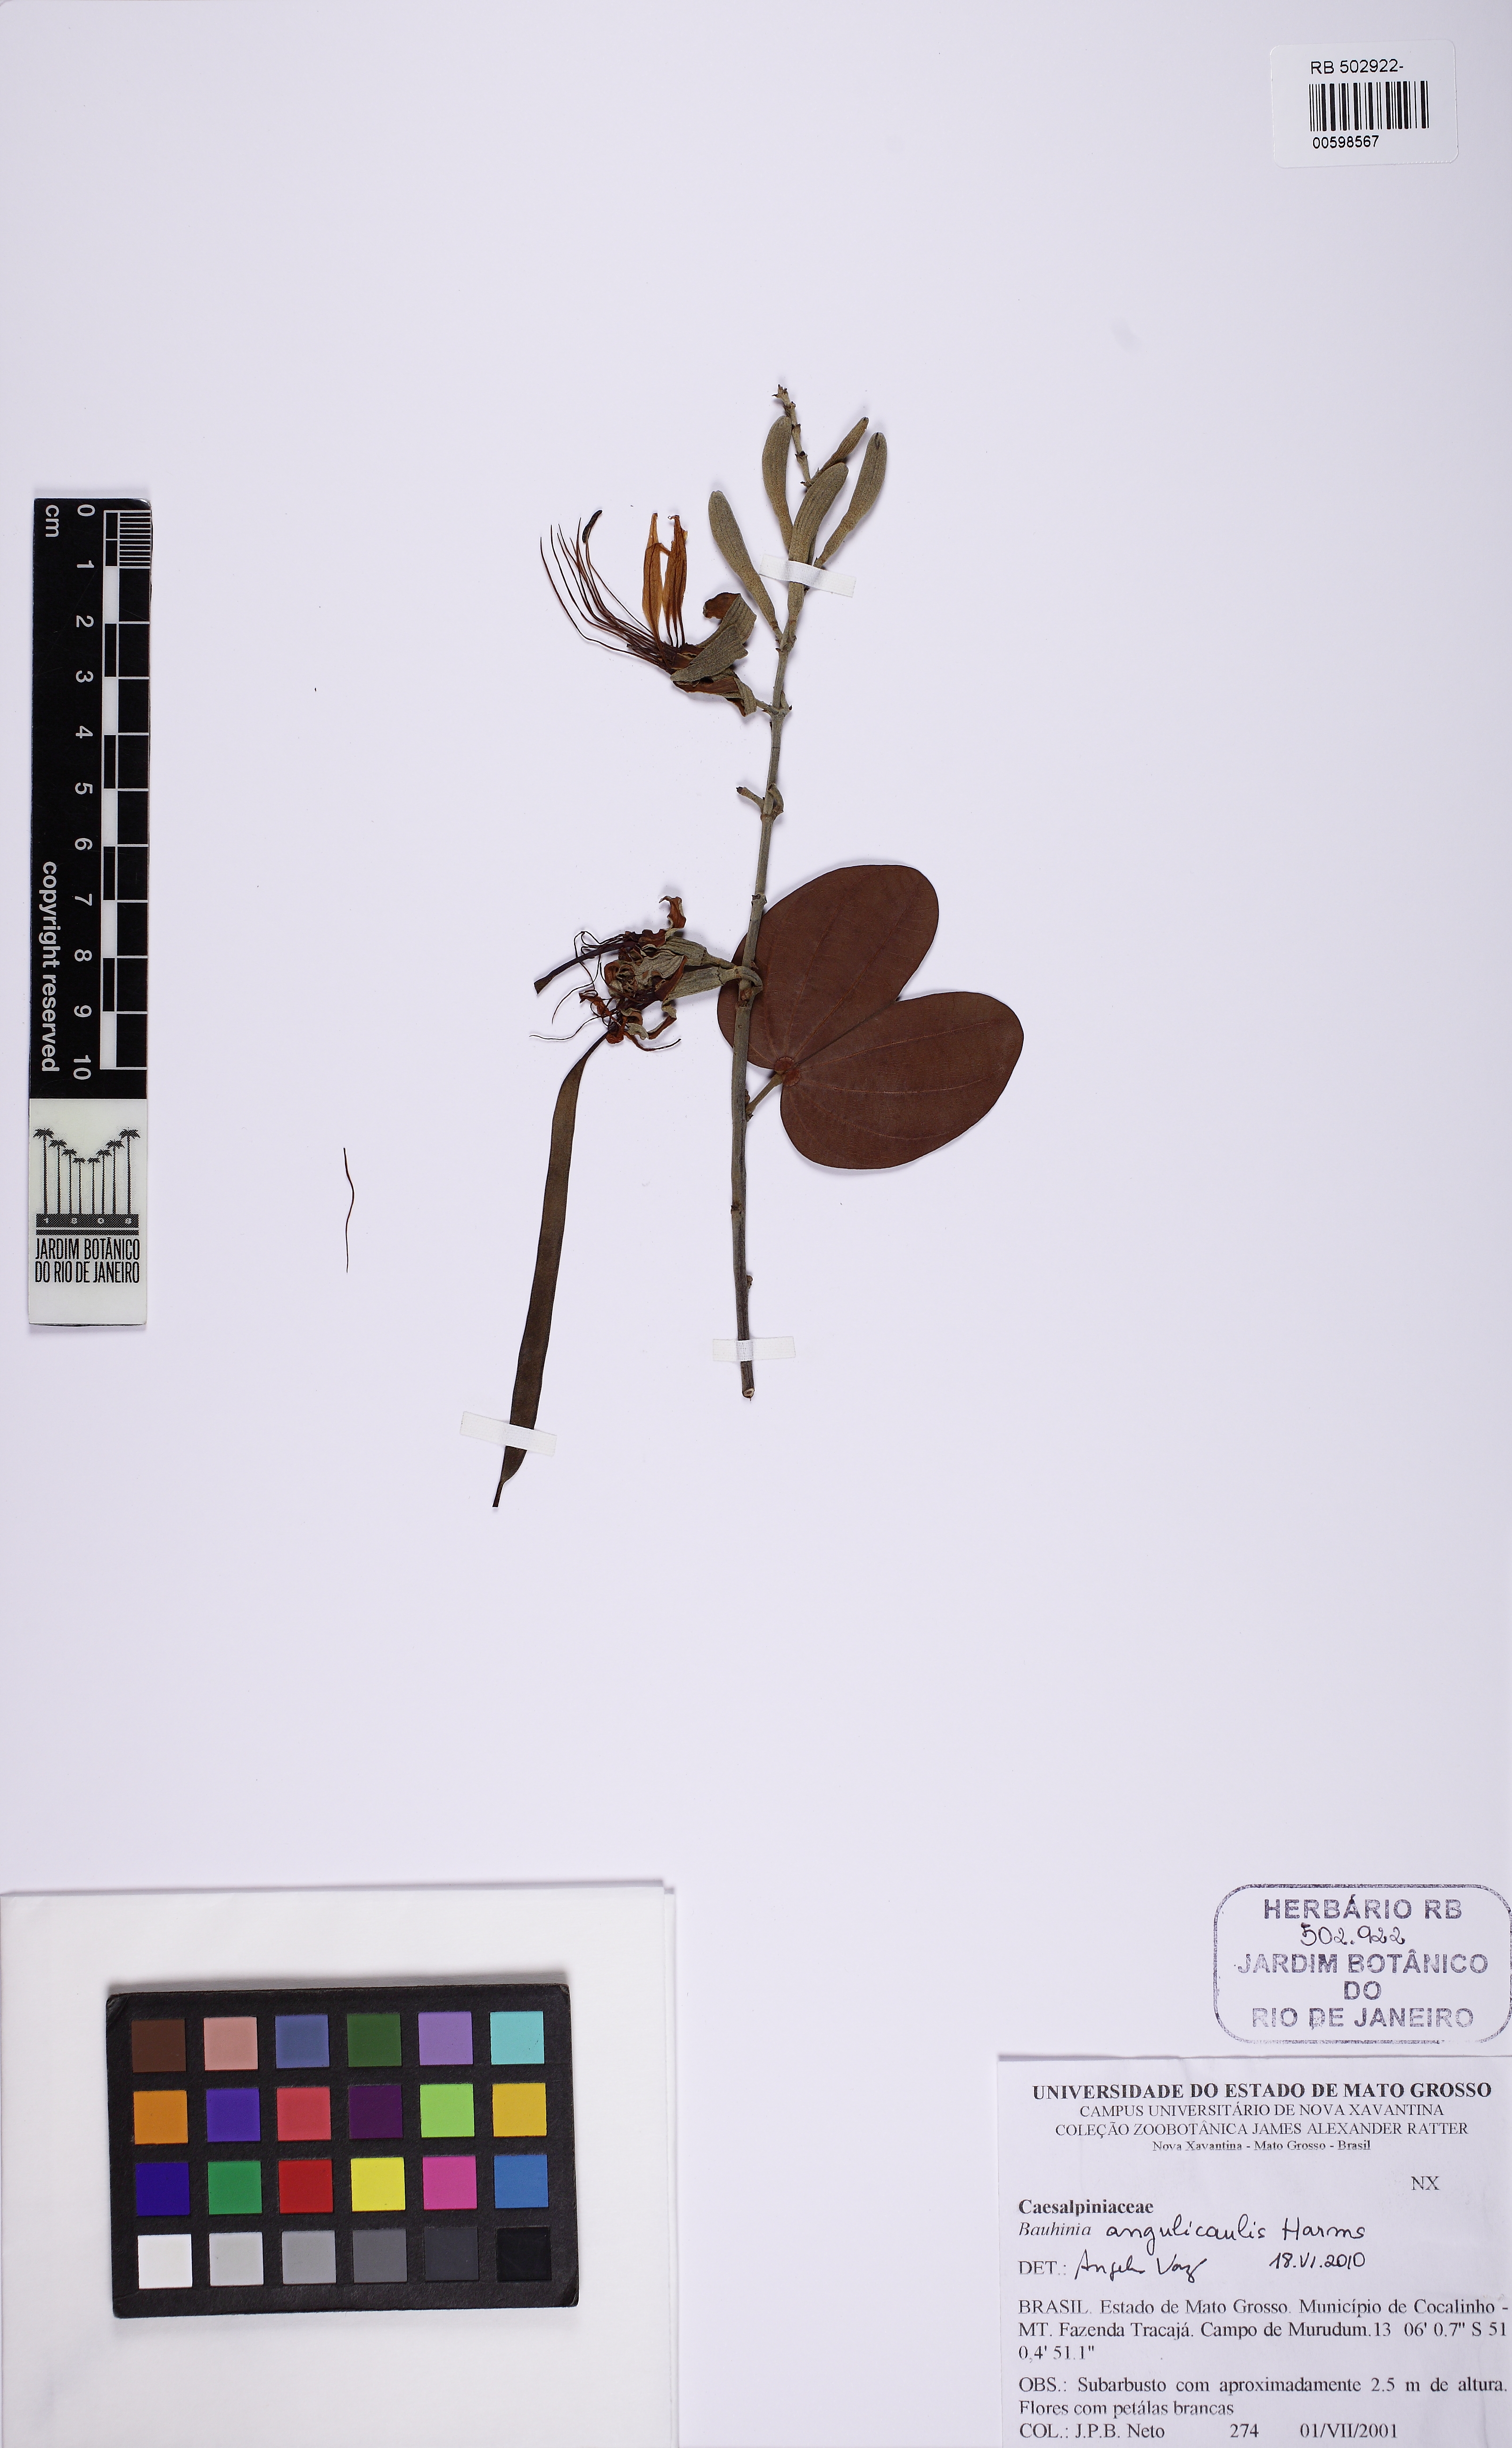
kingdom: Plantae
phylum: Tracheophyta
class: Magnoliopsida
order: Fabales
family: Fabaceae
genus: Bauhinia
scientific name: Bauhinia ungulata
